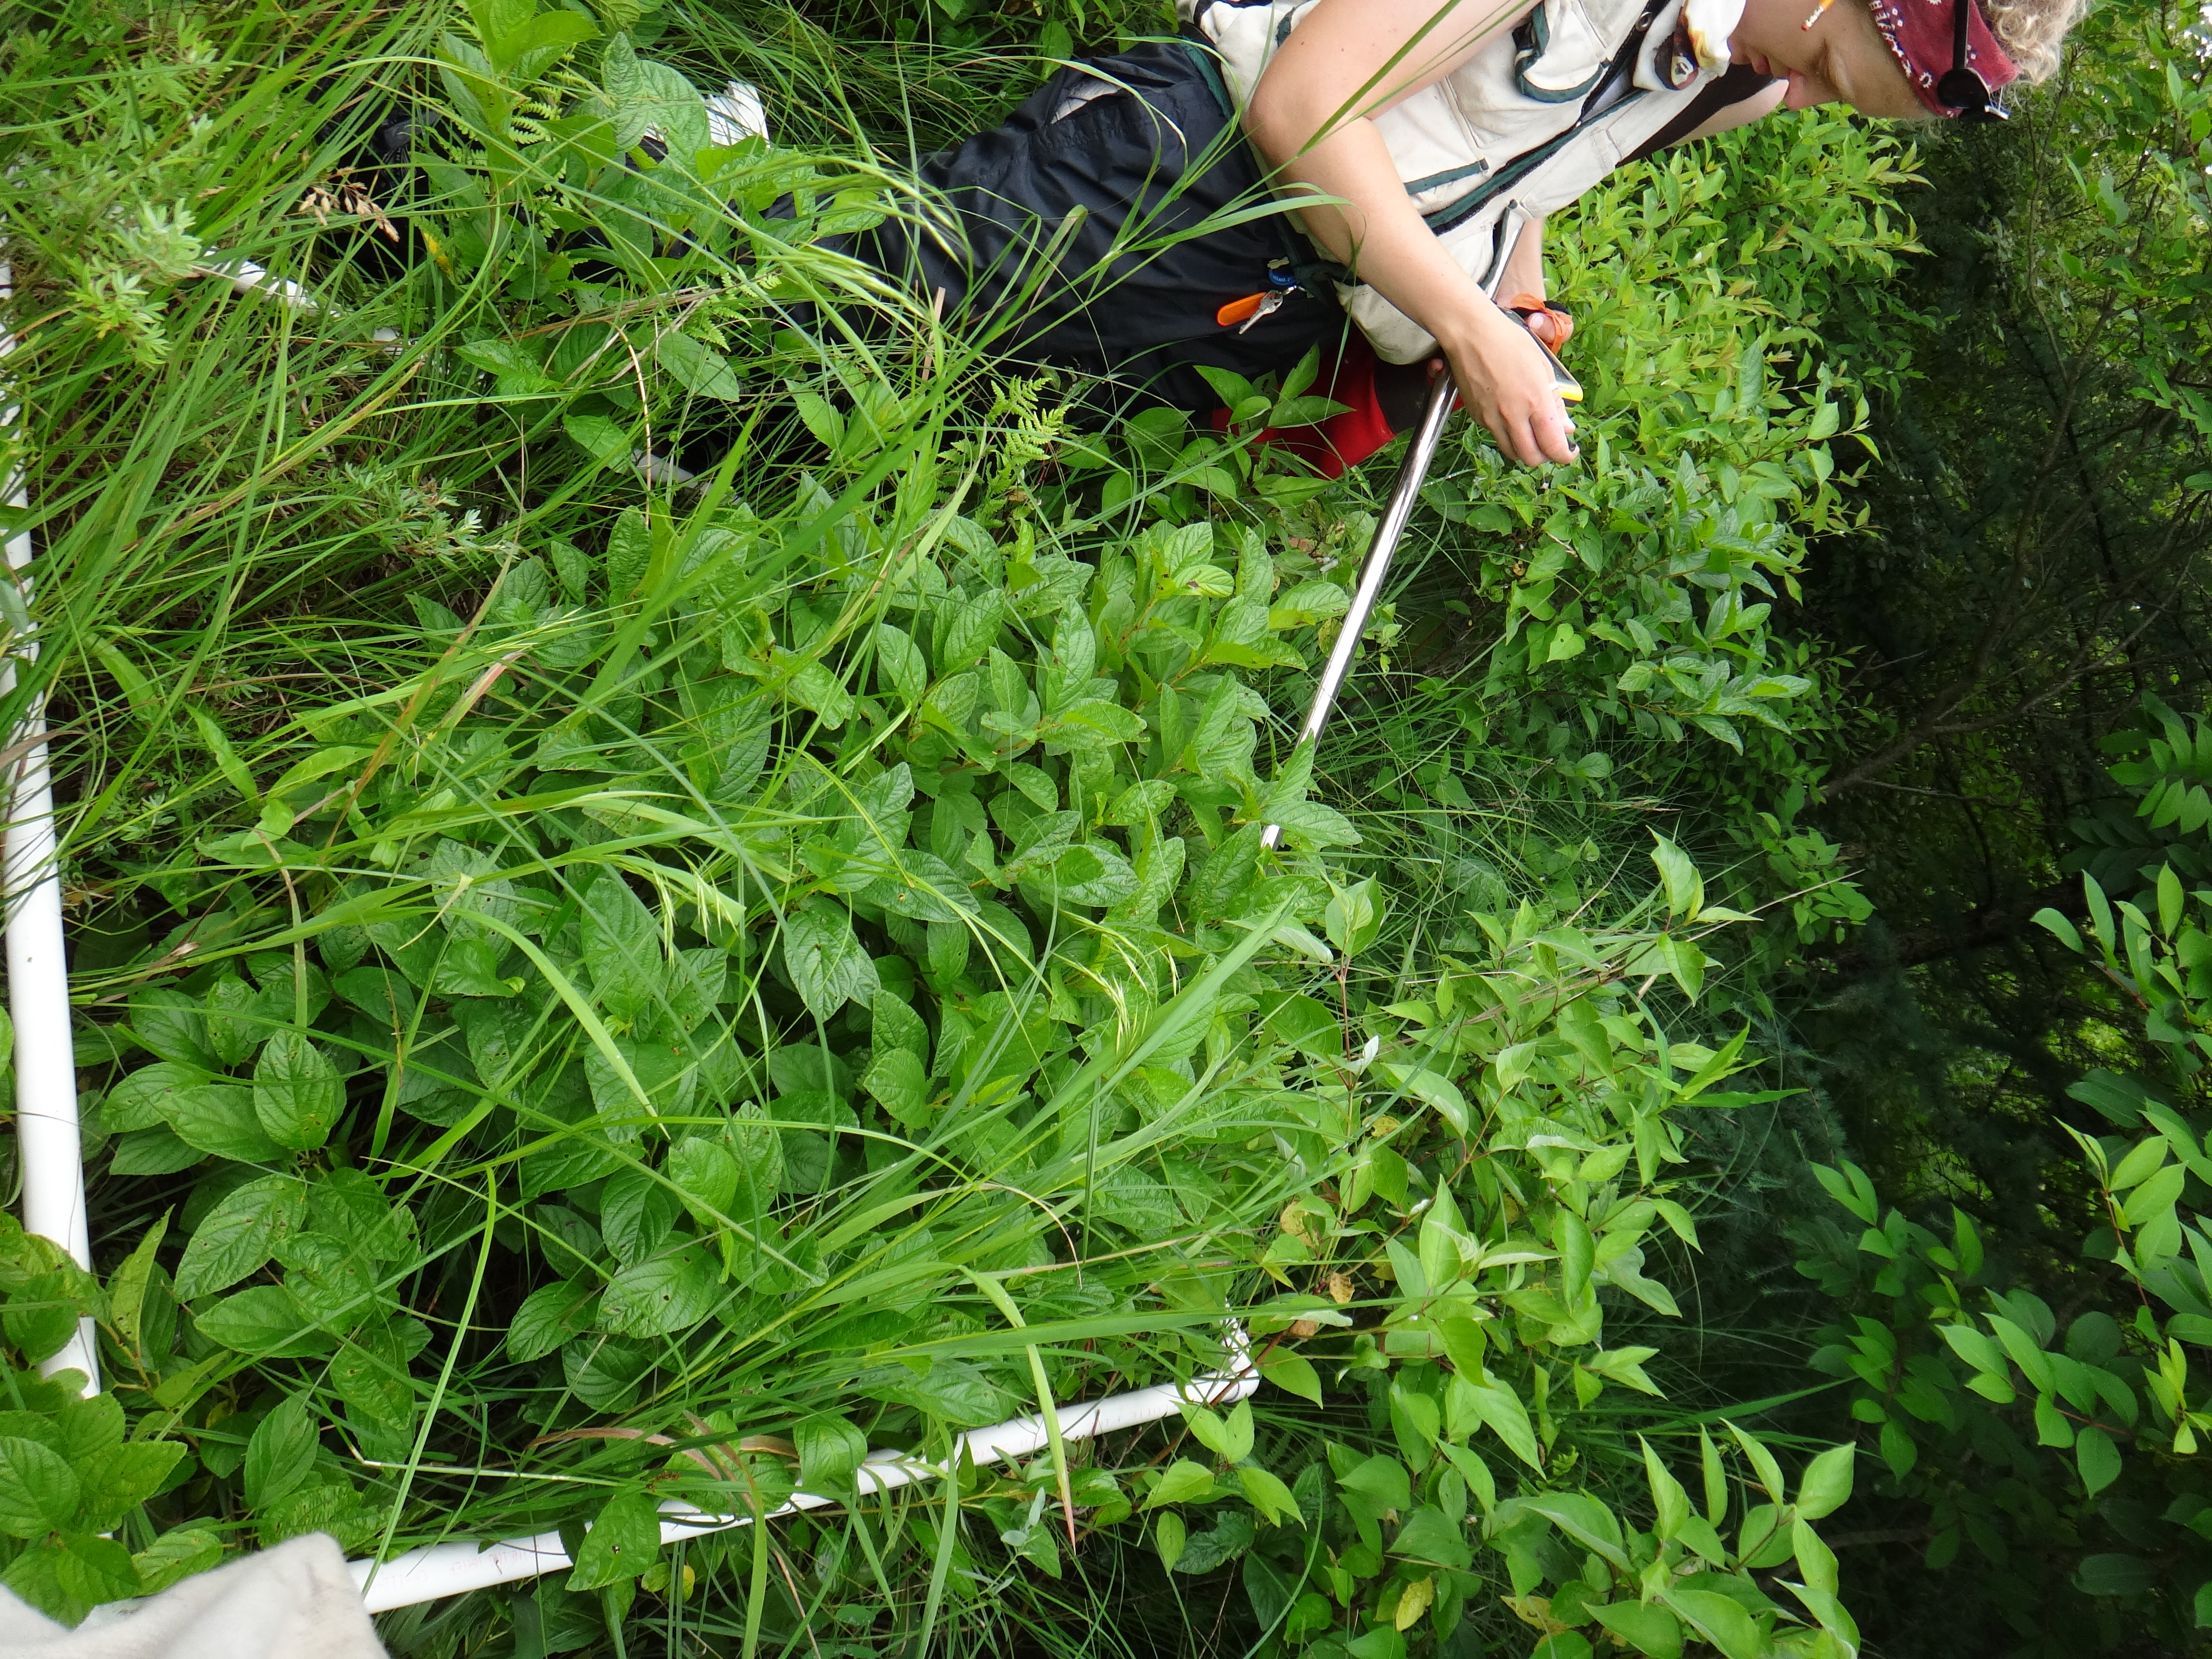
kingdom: Plantae
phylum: Tracheophyta
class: Magnoliopsida
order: Fabales
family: Fabaceae
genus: Lathyrus
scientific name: Lathyrus palustris
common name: Marsh pea
